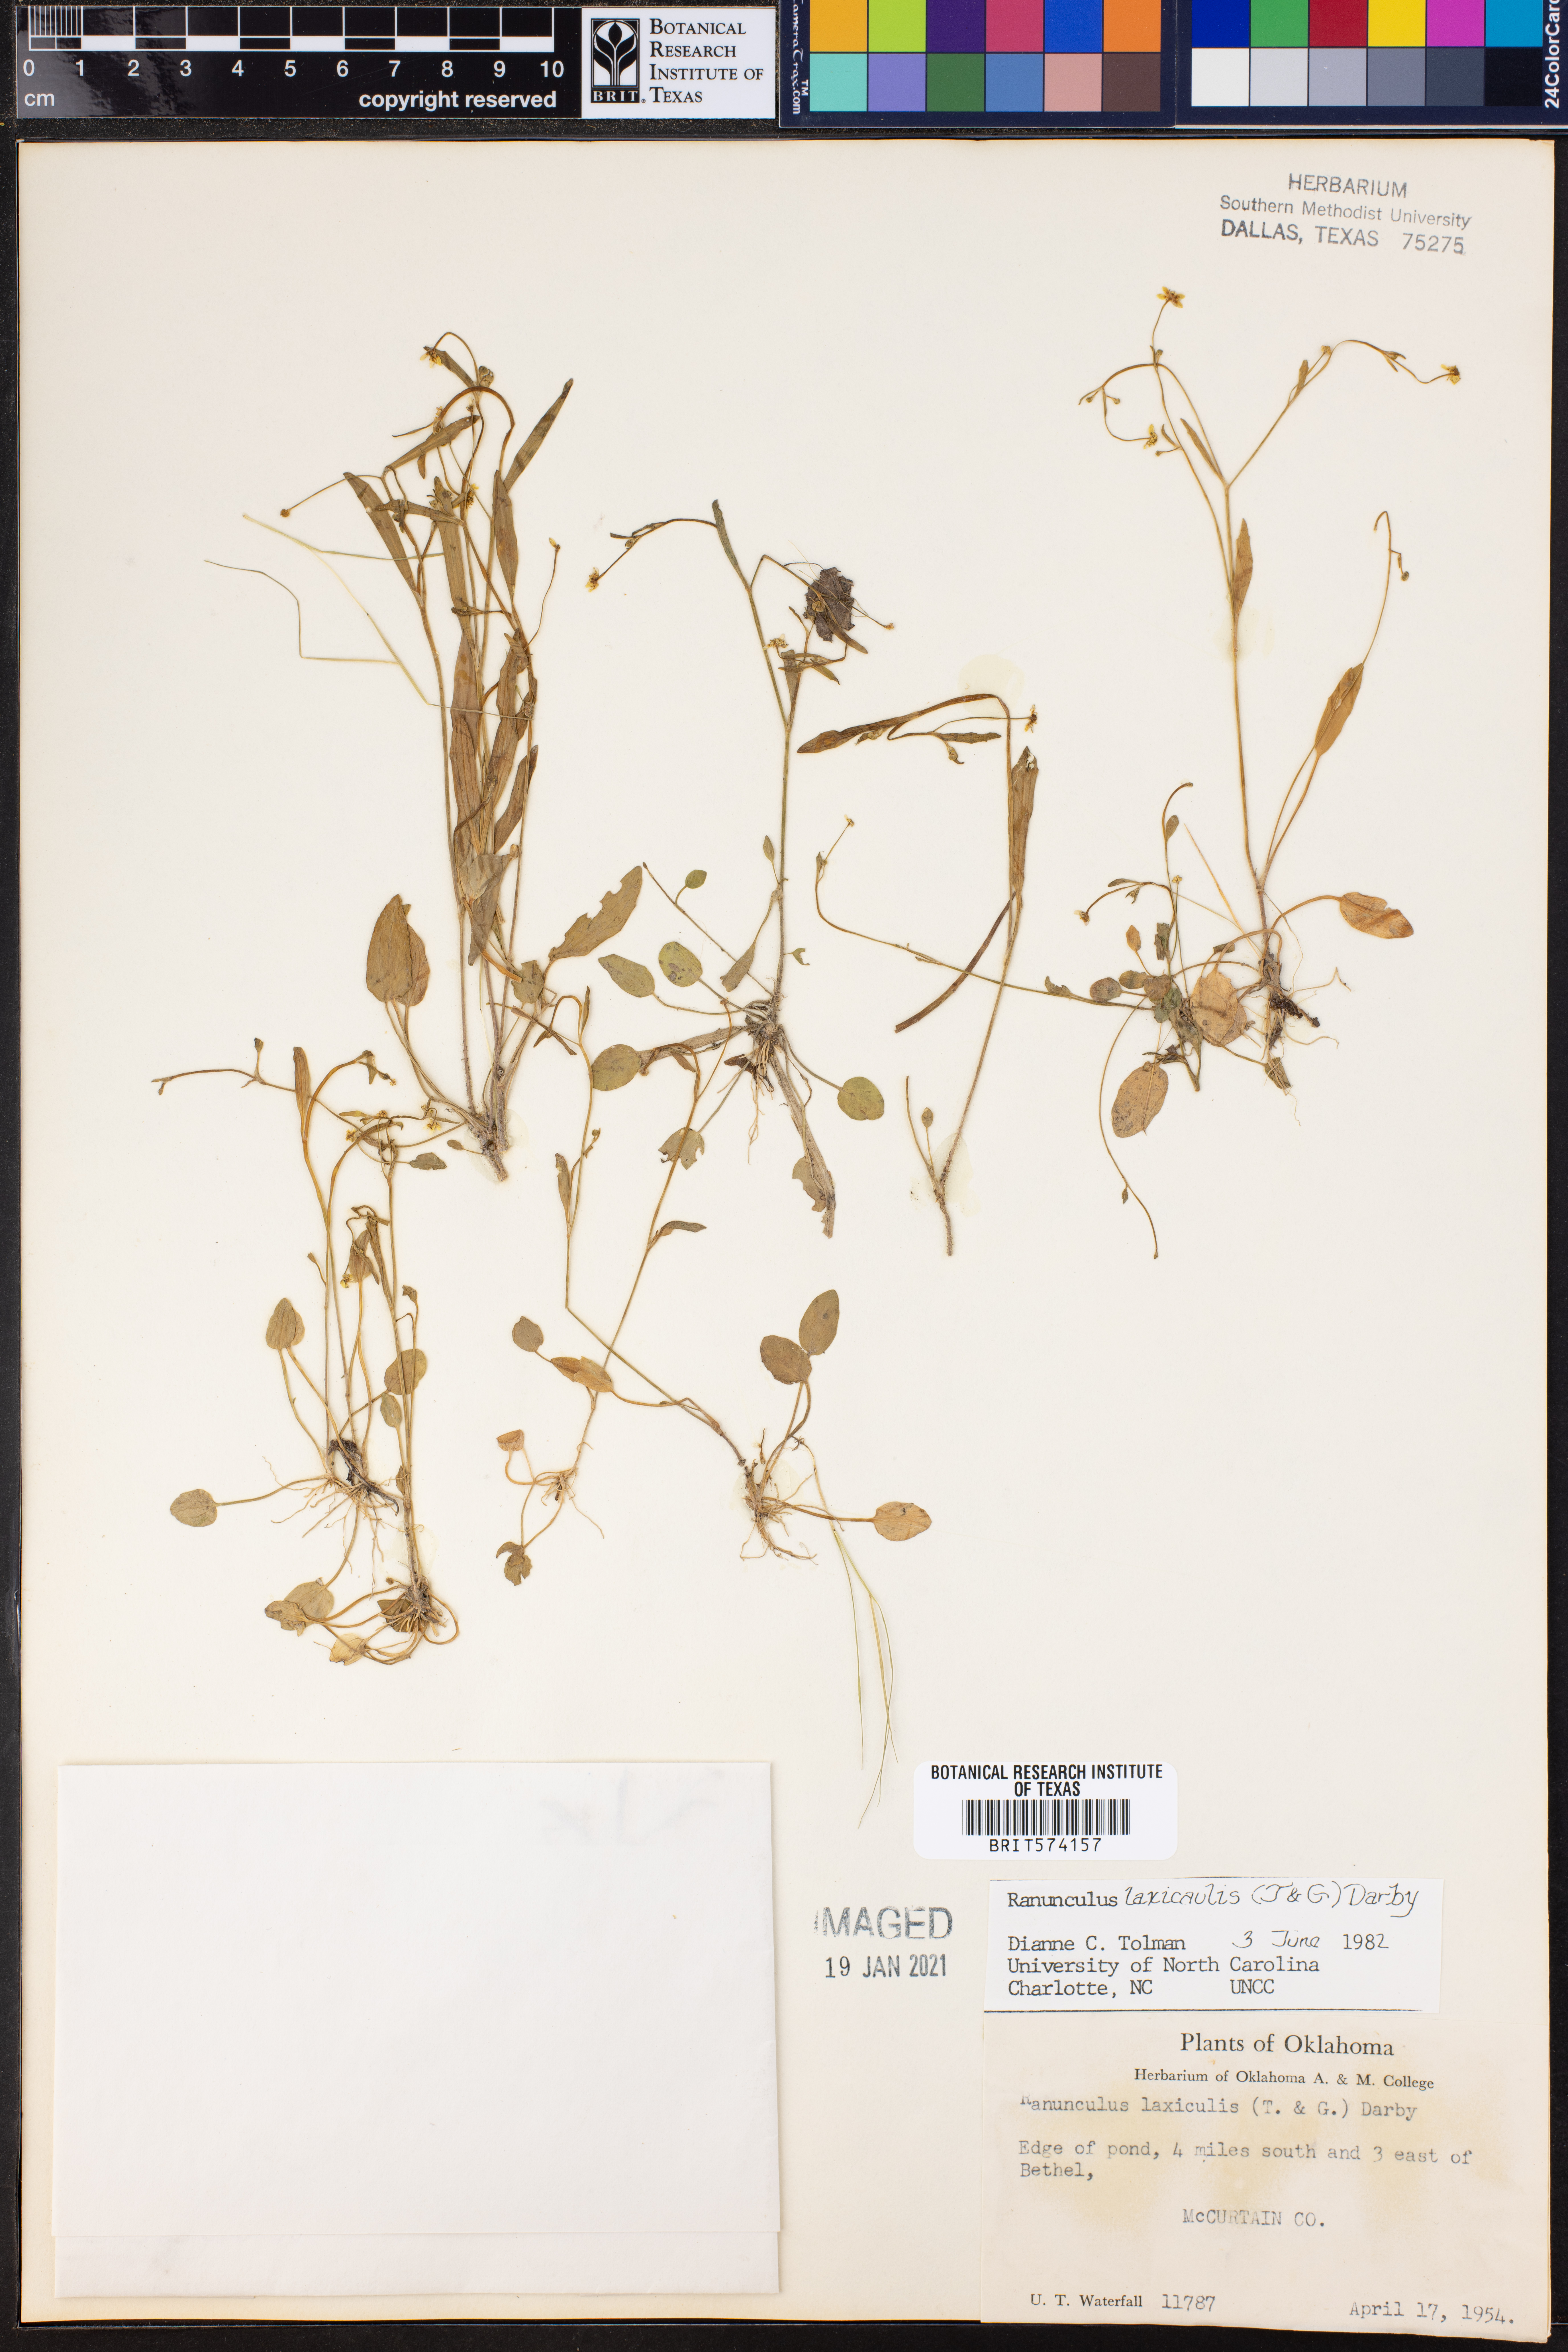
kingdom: Plantae
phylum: Tracheophyta
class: Magnoliopsida
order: Ranunculales
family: Ranunculaceae
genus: Ranunculus
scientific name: Ranunculus laxicaulis
